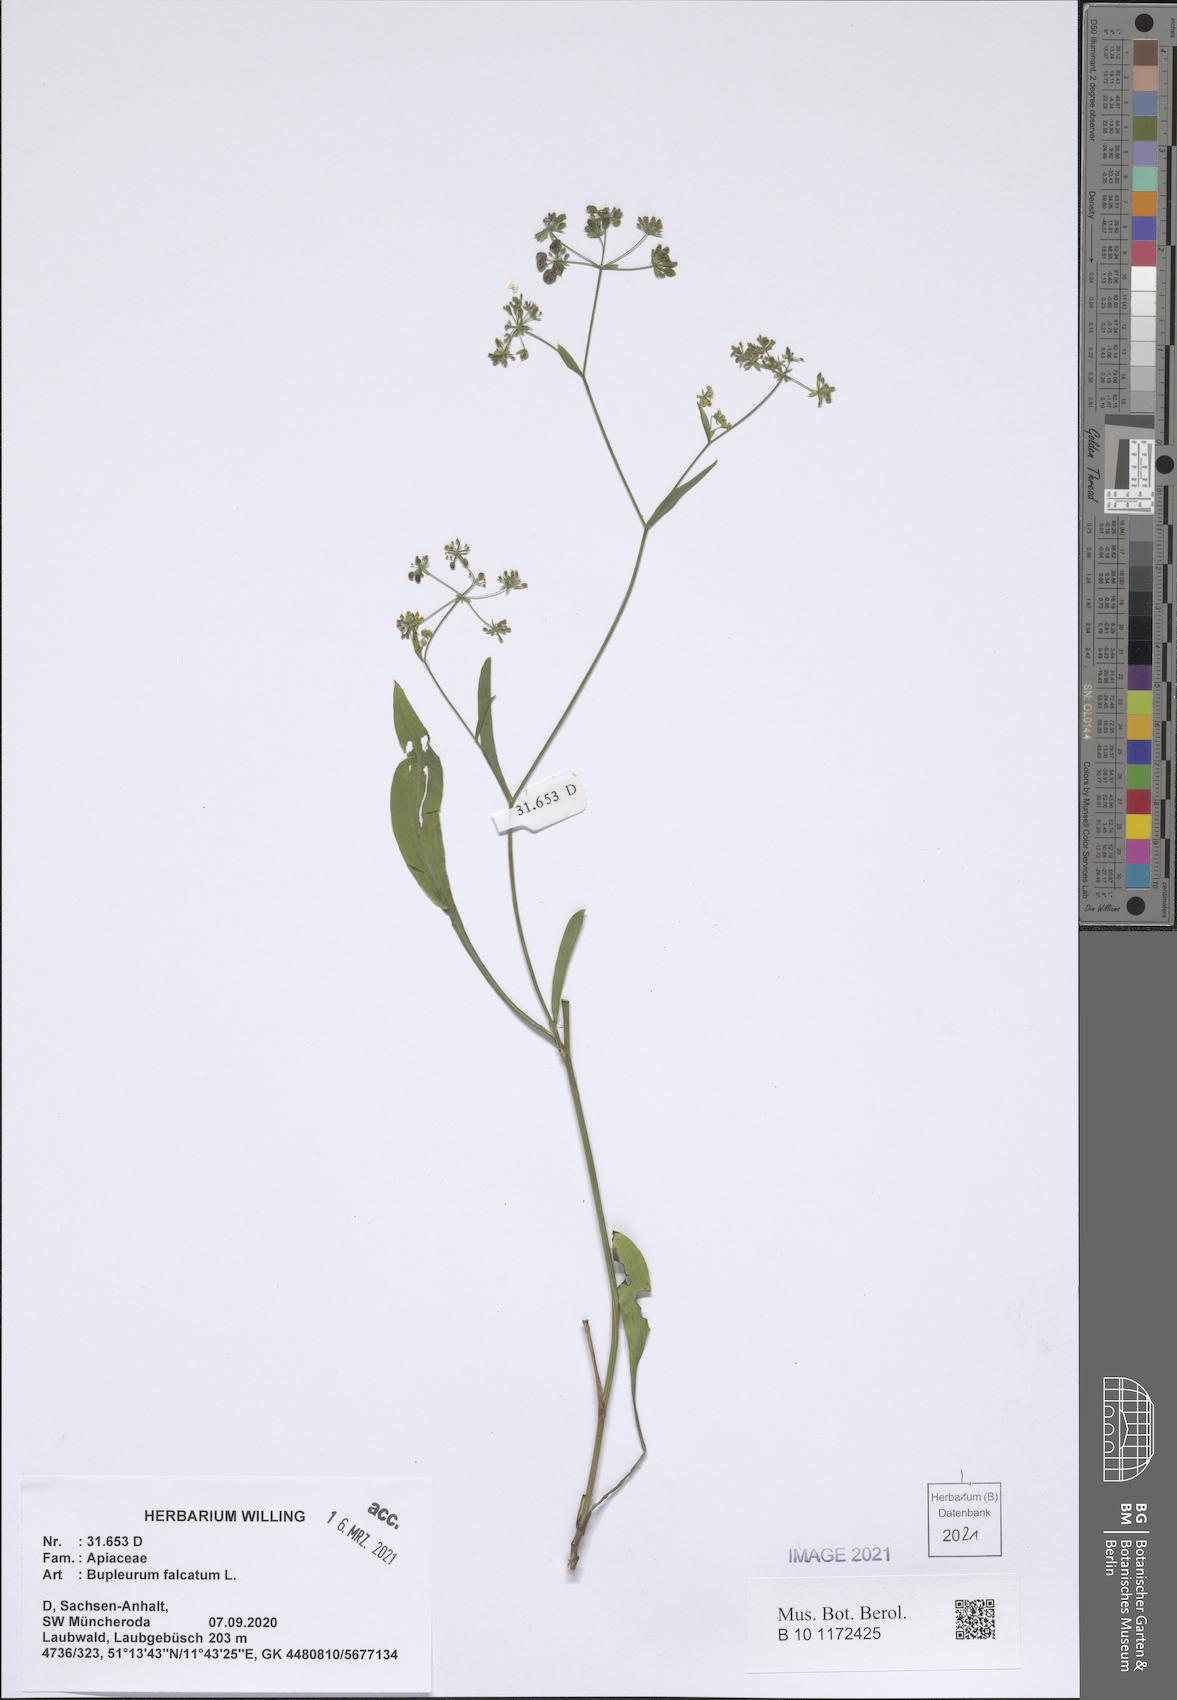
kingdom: Plantae
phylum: Tracheophyta
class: Magnoliopsida
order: Apiales
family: Apiaceae
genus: Bupleurum
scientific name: Bupleurum falcatum
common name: Sickle-leaved hare's-ear
